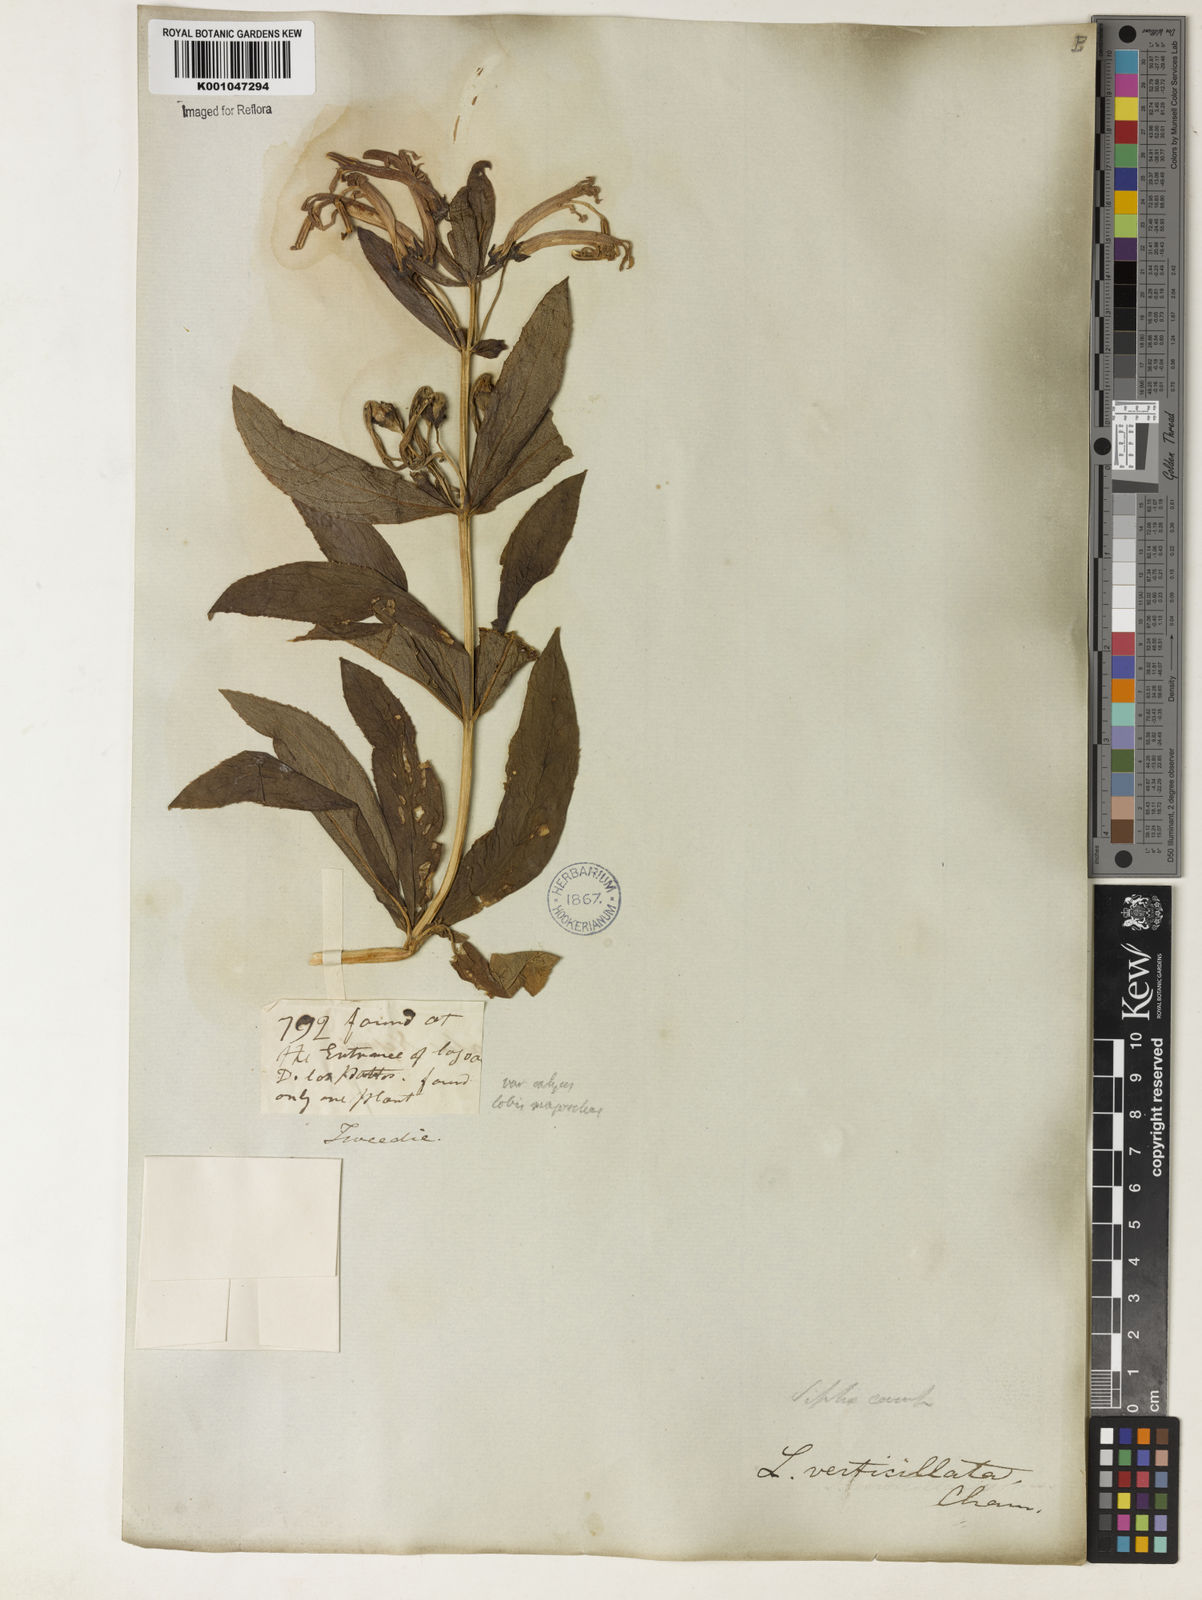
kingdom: Plantae
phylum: Tracheophyta
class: Magnoliopsida
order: Asterales
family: Campanulaceae
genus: Siphocampylus
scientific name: Siphocampylus verticillatus
